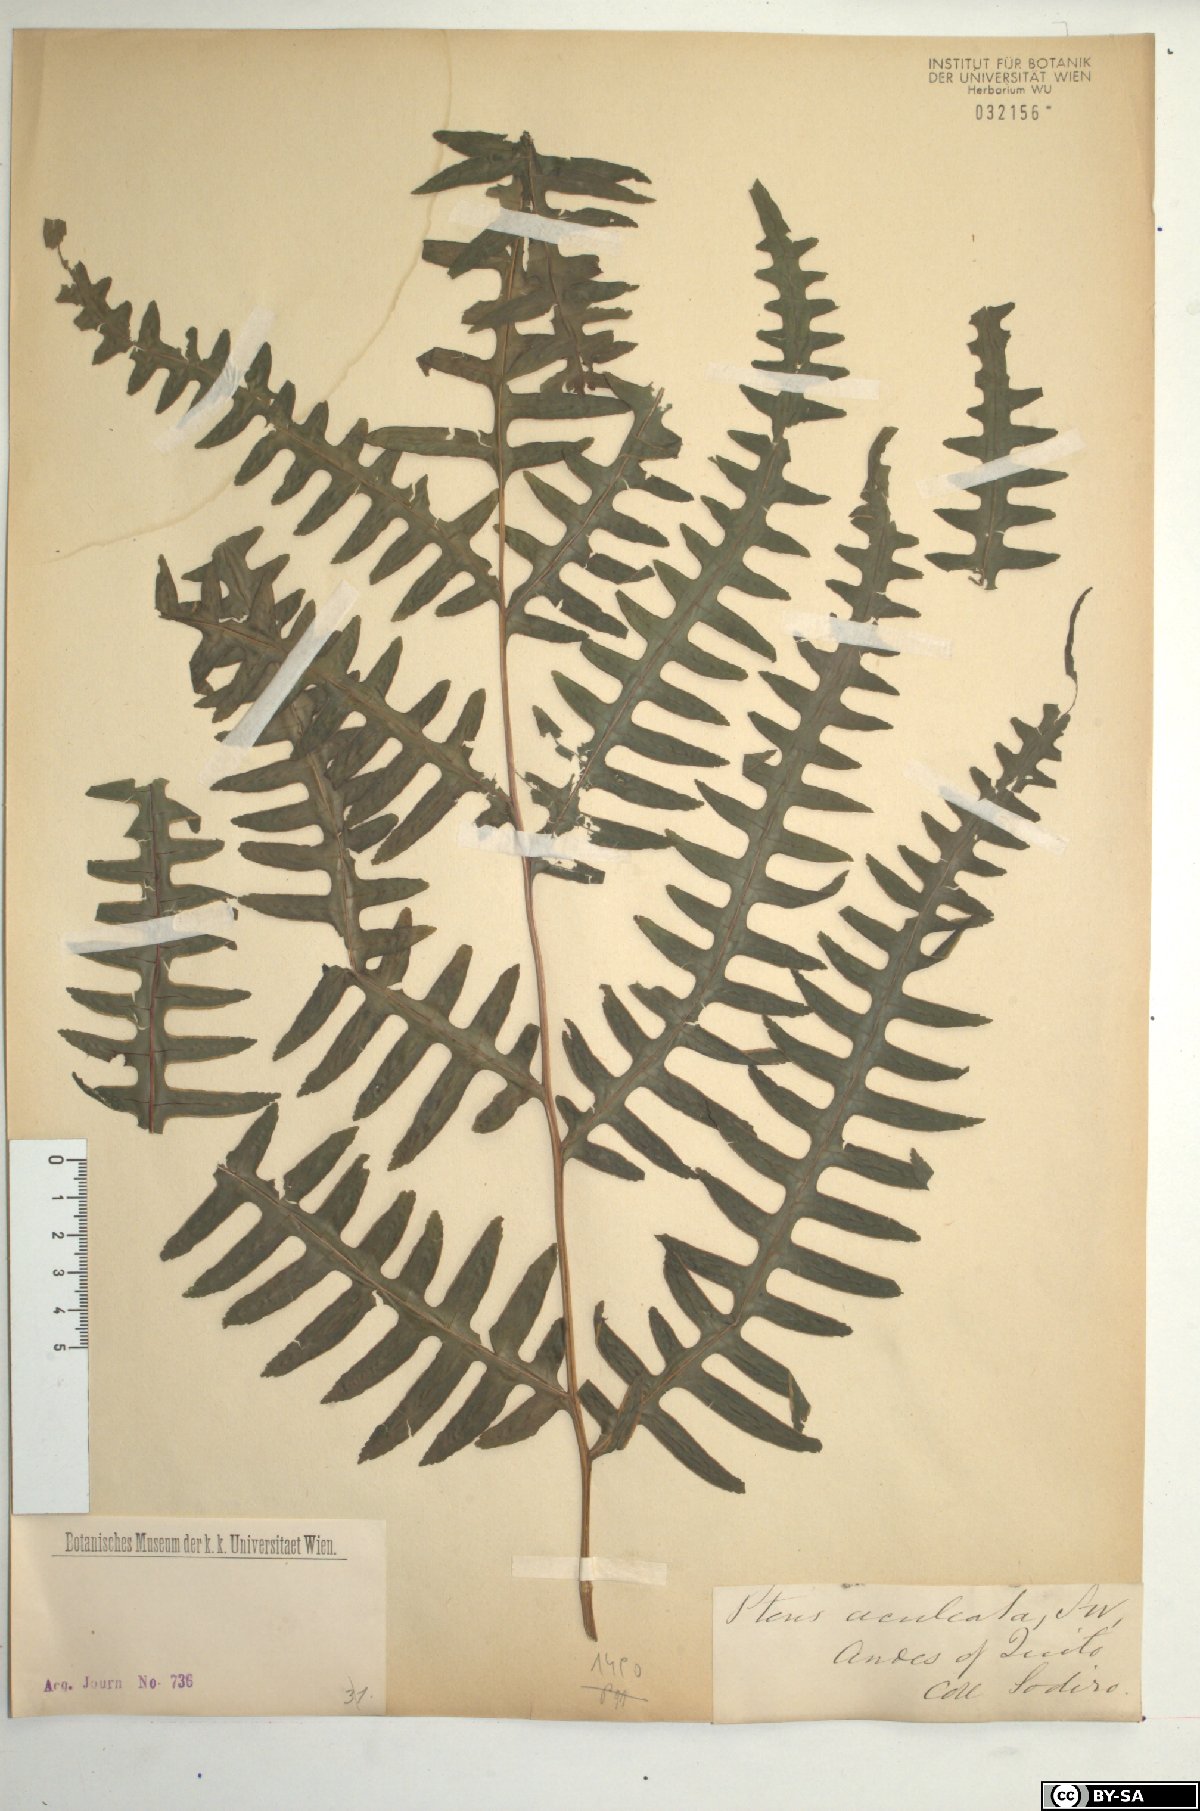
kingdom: Plantae
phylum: Tracheophyta
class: Polypodiopsida
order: Polypodiales
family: Pteridaceae
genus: Pteris
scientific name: Pteris arborea
